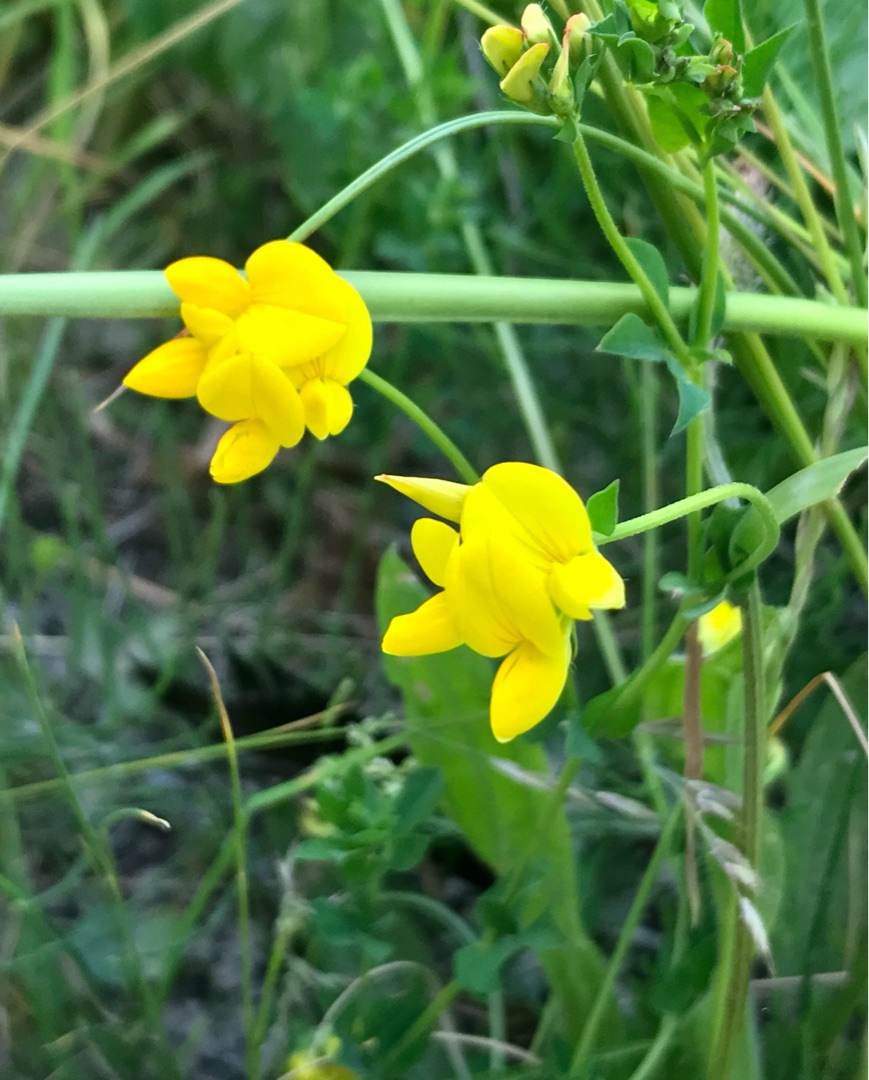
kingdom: Plantae
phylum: Tracheophyta
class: Magnoliopsida
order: Fabales
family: Fabaceae
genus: Lotus
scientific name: Lotus corniculatus
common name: Almindelig kællingetand
